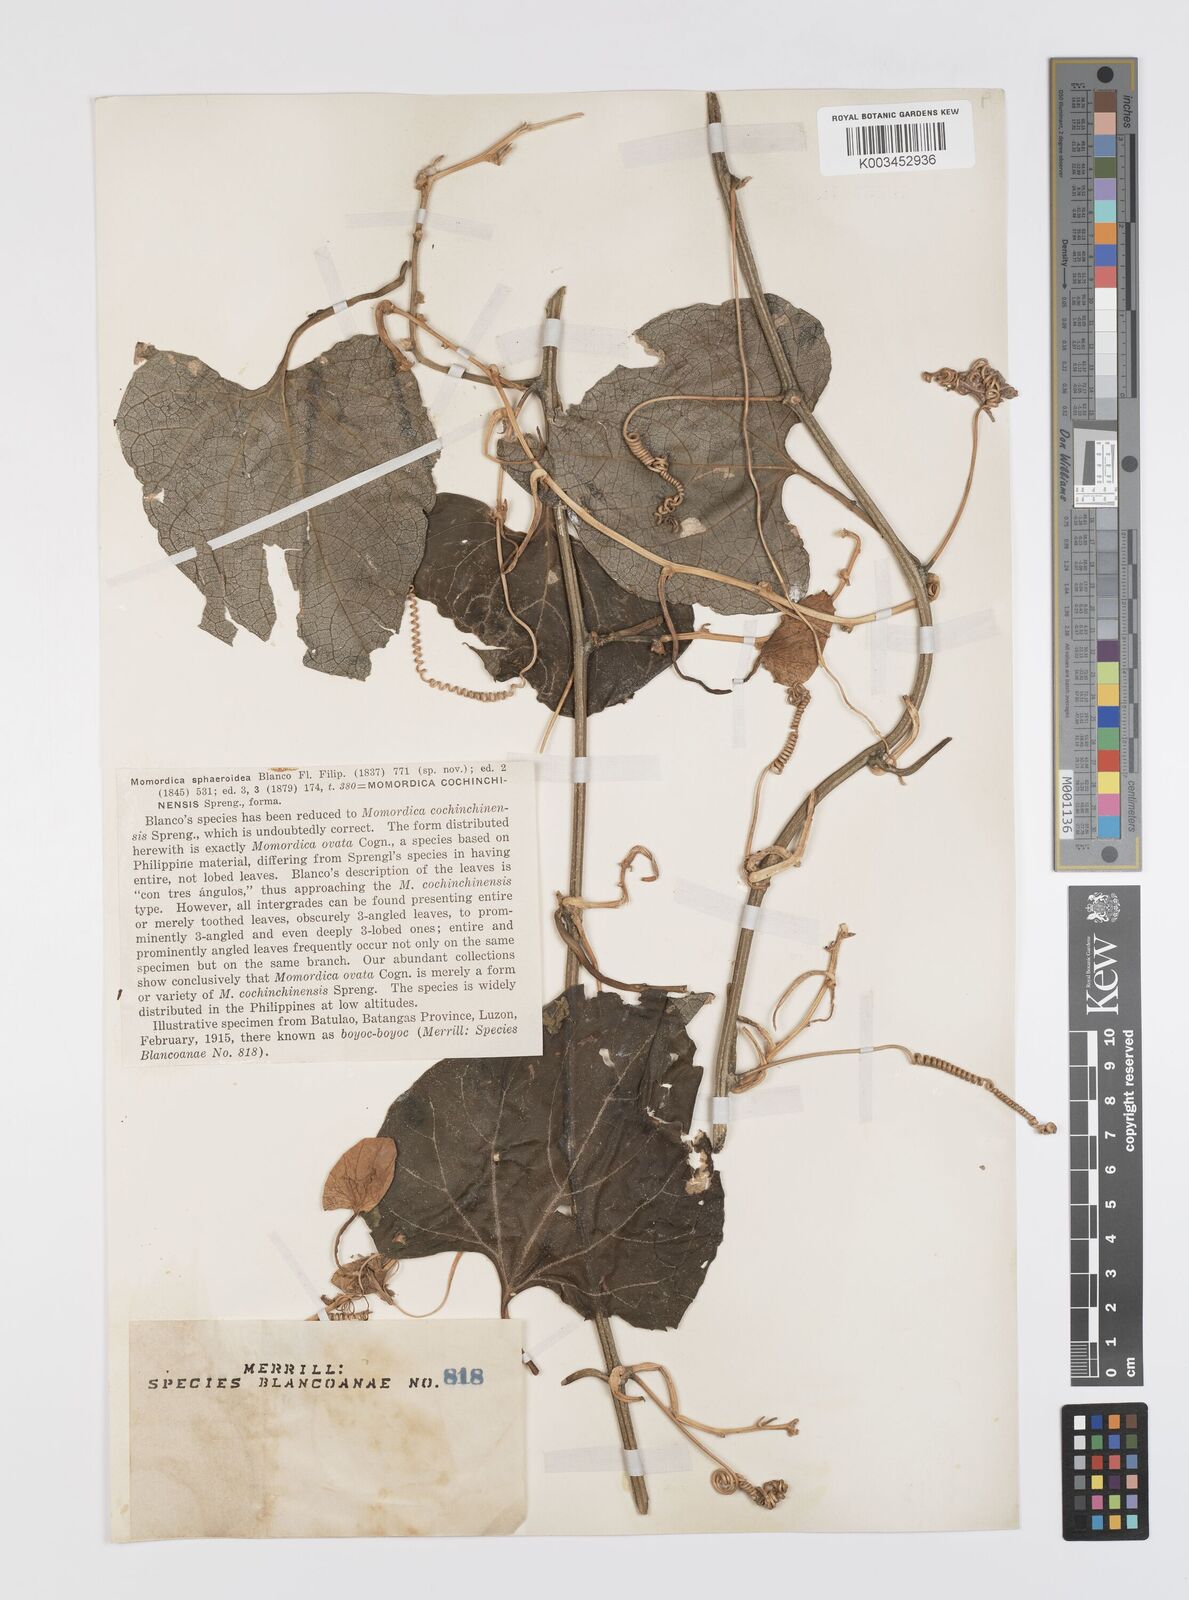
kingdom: Plantae
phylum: Tracheophyta
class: Magnoliopsida
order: Cucurbitales
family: Cucurbitaceae
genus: Momordica
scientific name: Momordica cochinchinensis
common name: Chinese bitter-cucumber
